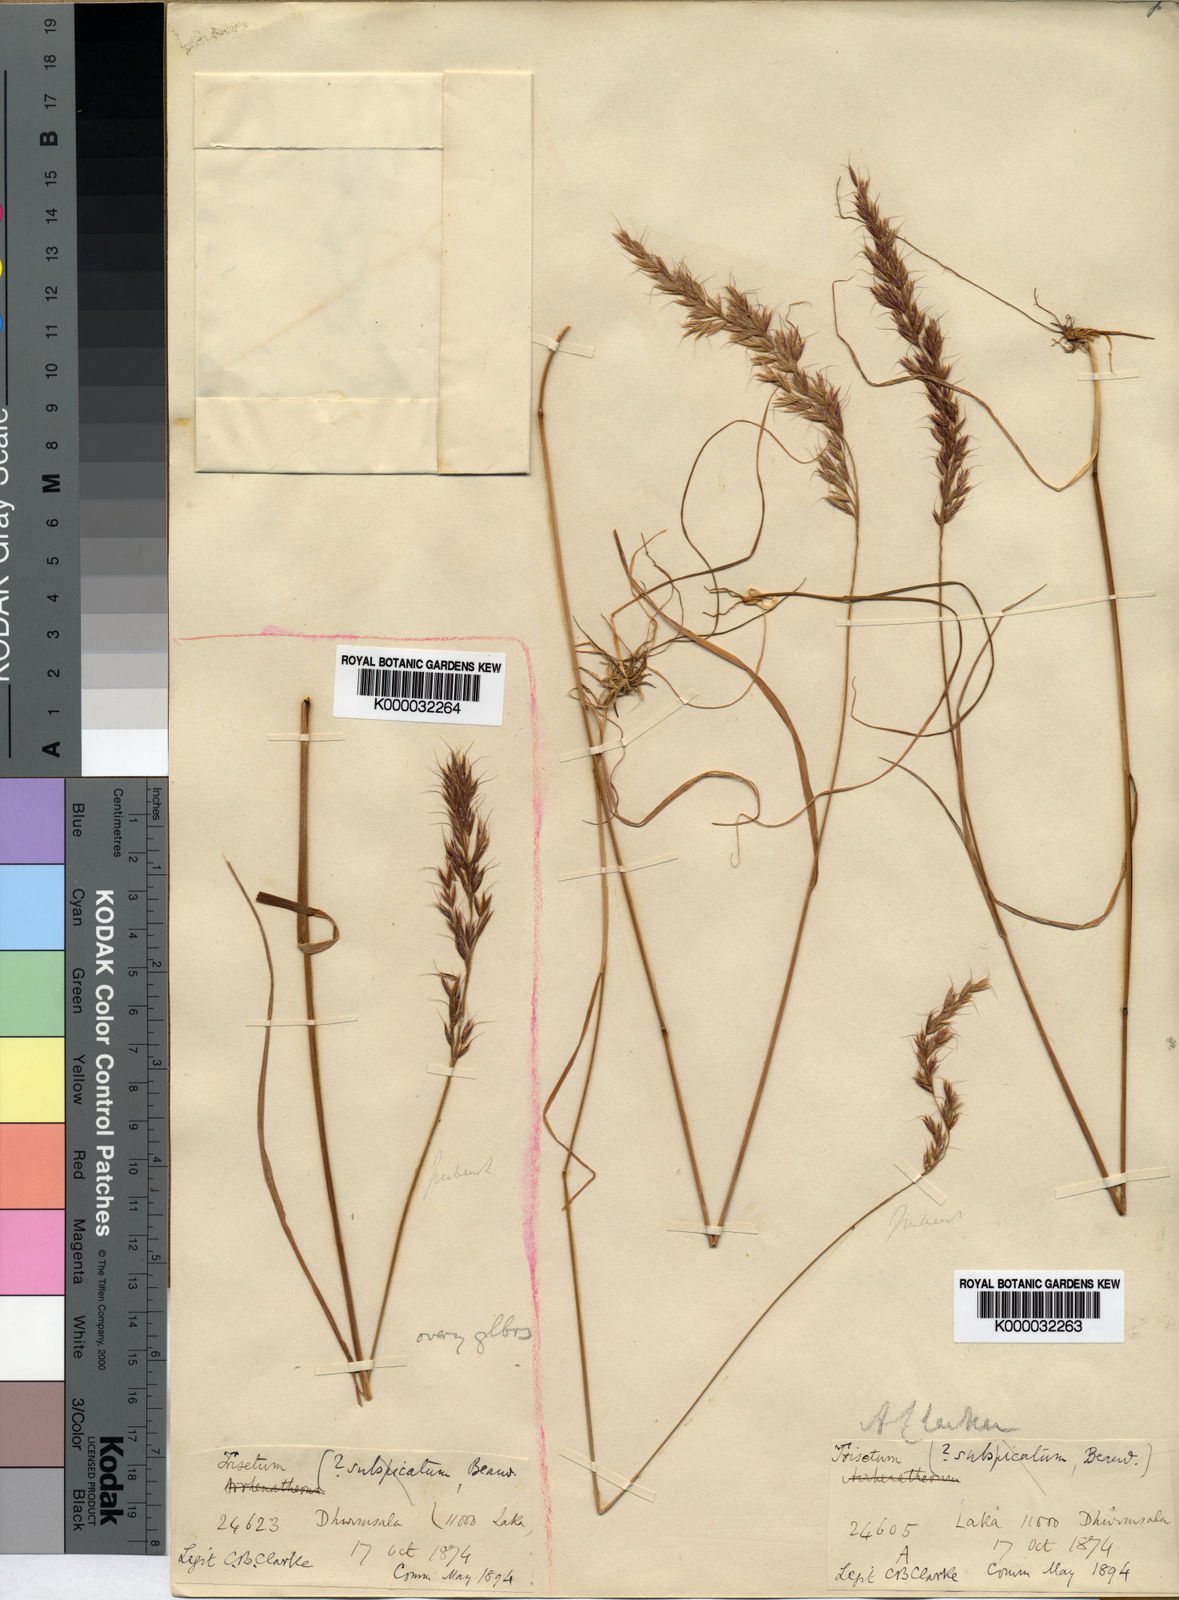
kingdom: Plantae
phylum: Tracheophyta
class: Liliopsida
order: Poales
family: Poaceae
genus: Trisetum
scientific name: Trisetum clarkei
